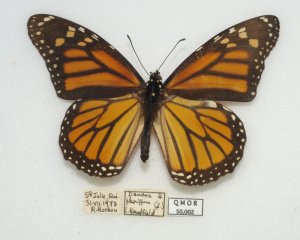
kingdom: Animalia
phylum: Arthropoda
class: Insecta
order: Lepidoptera
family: Nymphalidae
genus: Danaus
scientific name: Danaus plexippus
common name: Monarch
